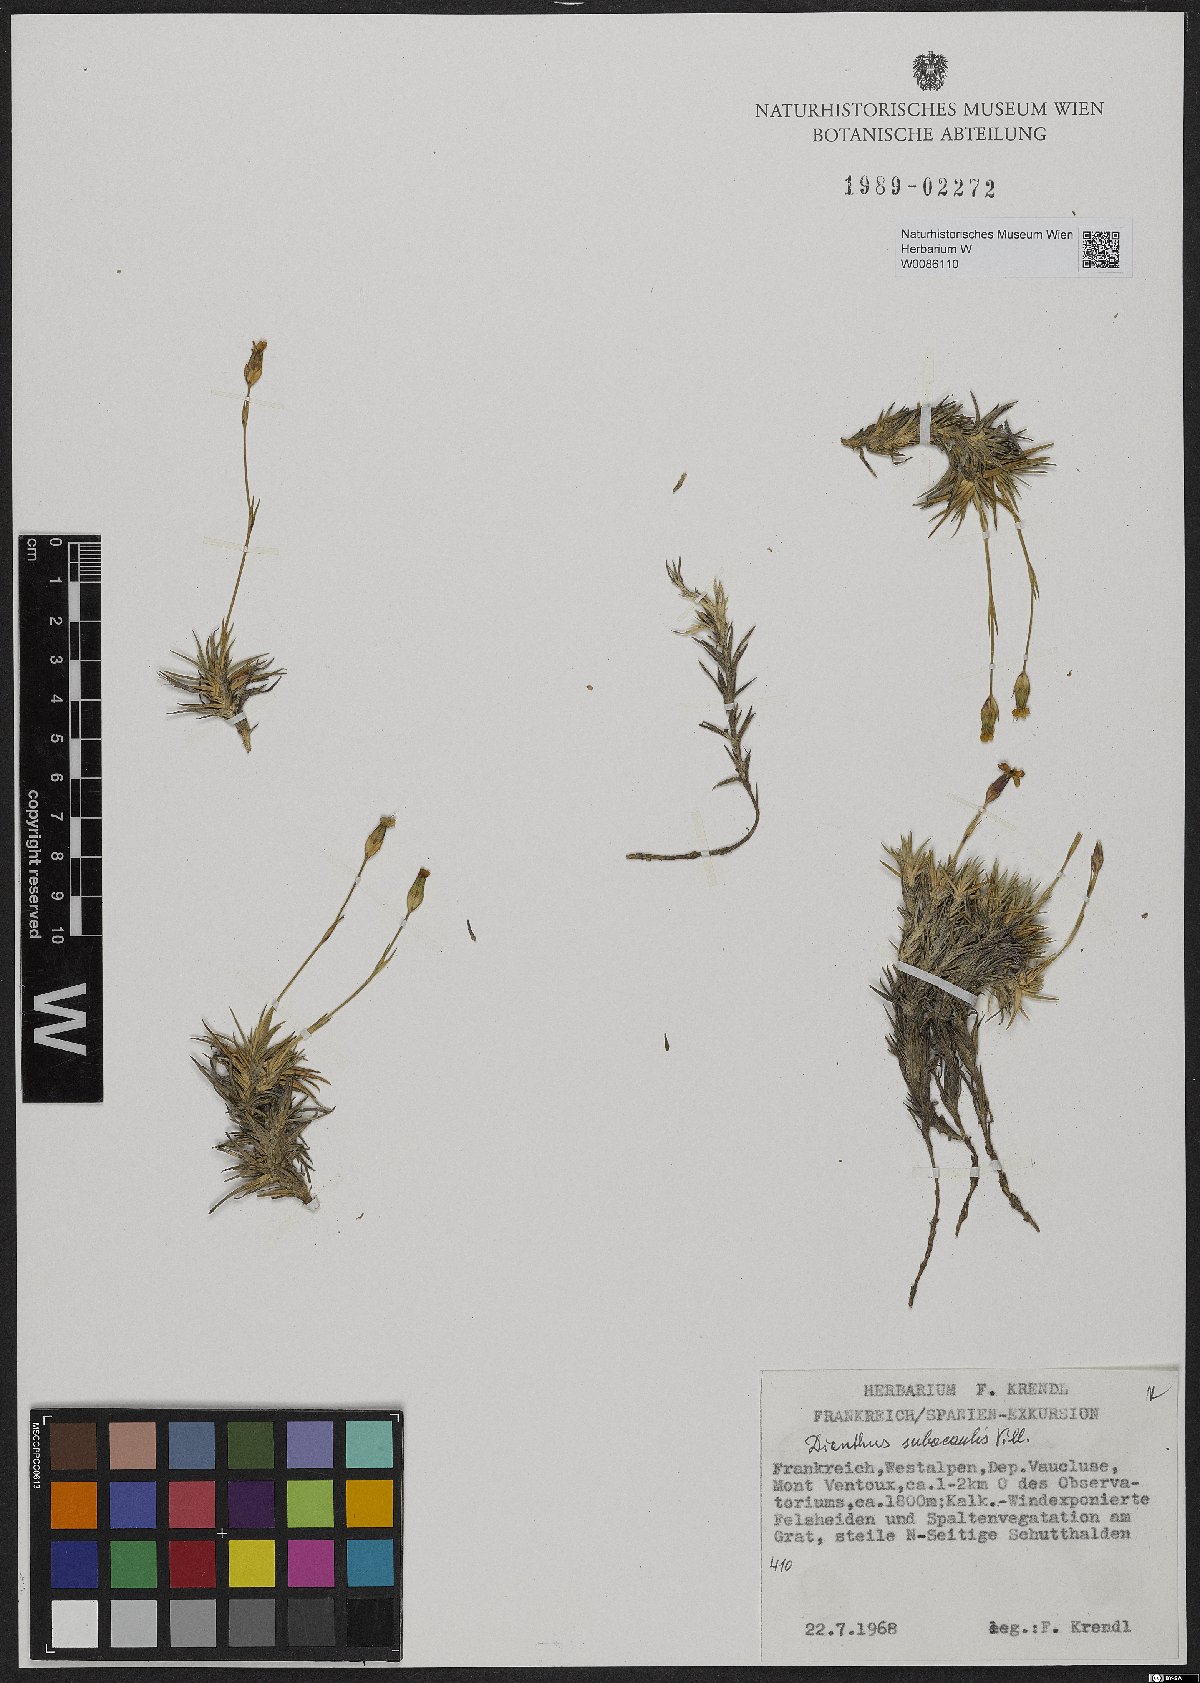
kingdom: Plantae
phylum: Tracheophyta
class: Magnoliopsida
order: Caryophyllales
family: Caryophyllaceae
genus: Dianthus
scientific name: Dianthus subacaulis
